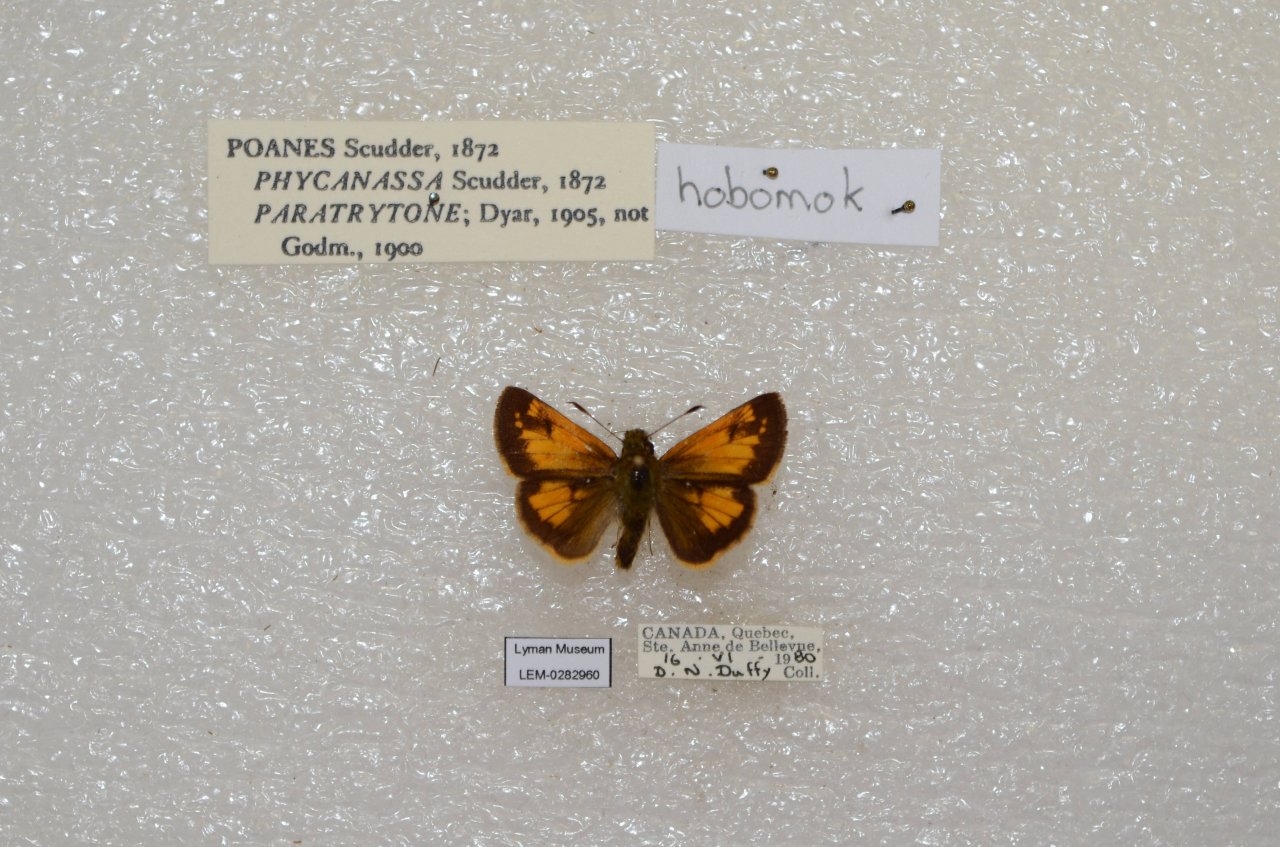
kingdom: Animalia
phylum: Arthropoda
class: Insecta
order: Lepidoptera
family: Hesperiidae
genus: Lon
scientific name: Lon hobomok
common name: Hobomok Skipper
